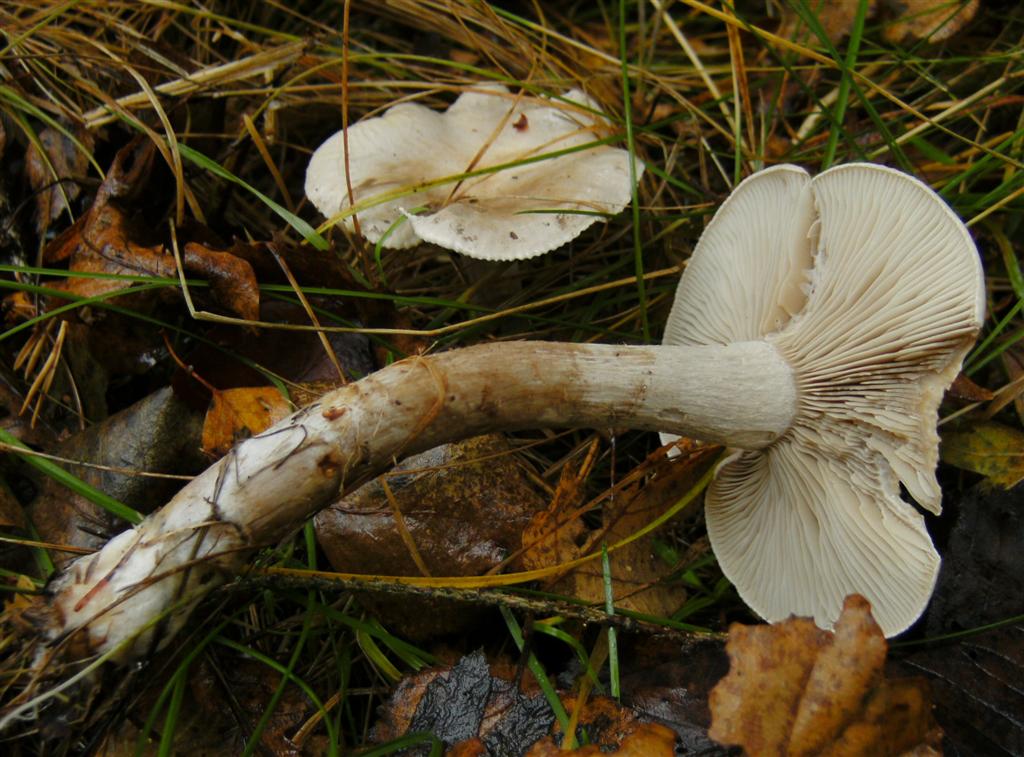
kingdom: Fungi
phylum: Basidiomycota
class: Agaricomycetes
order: Agaricales
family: Tricholomataceae
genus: Atractosporocybe
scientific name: Atractosporocybe inornata
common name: filtstokket tragthat
